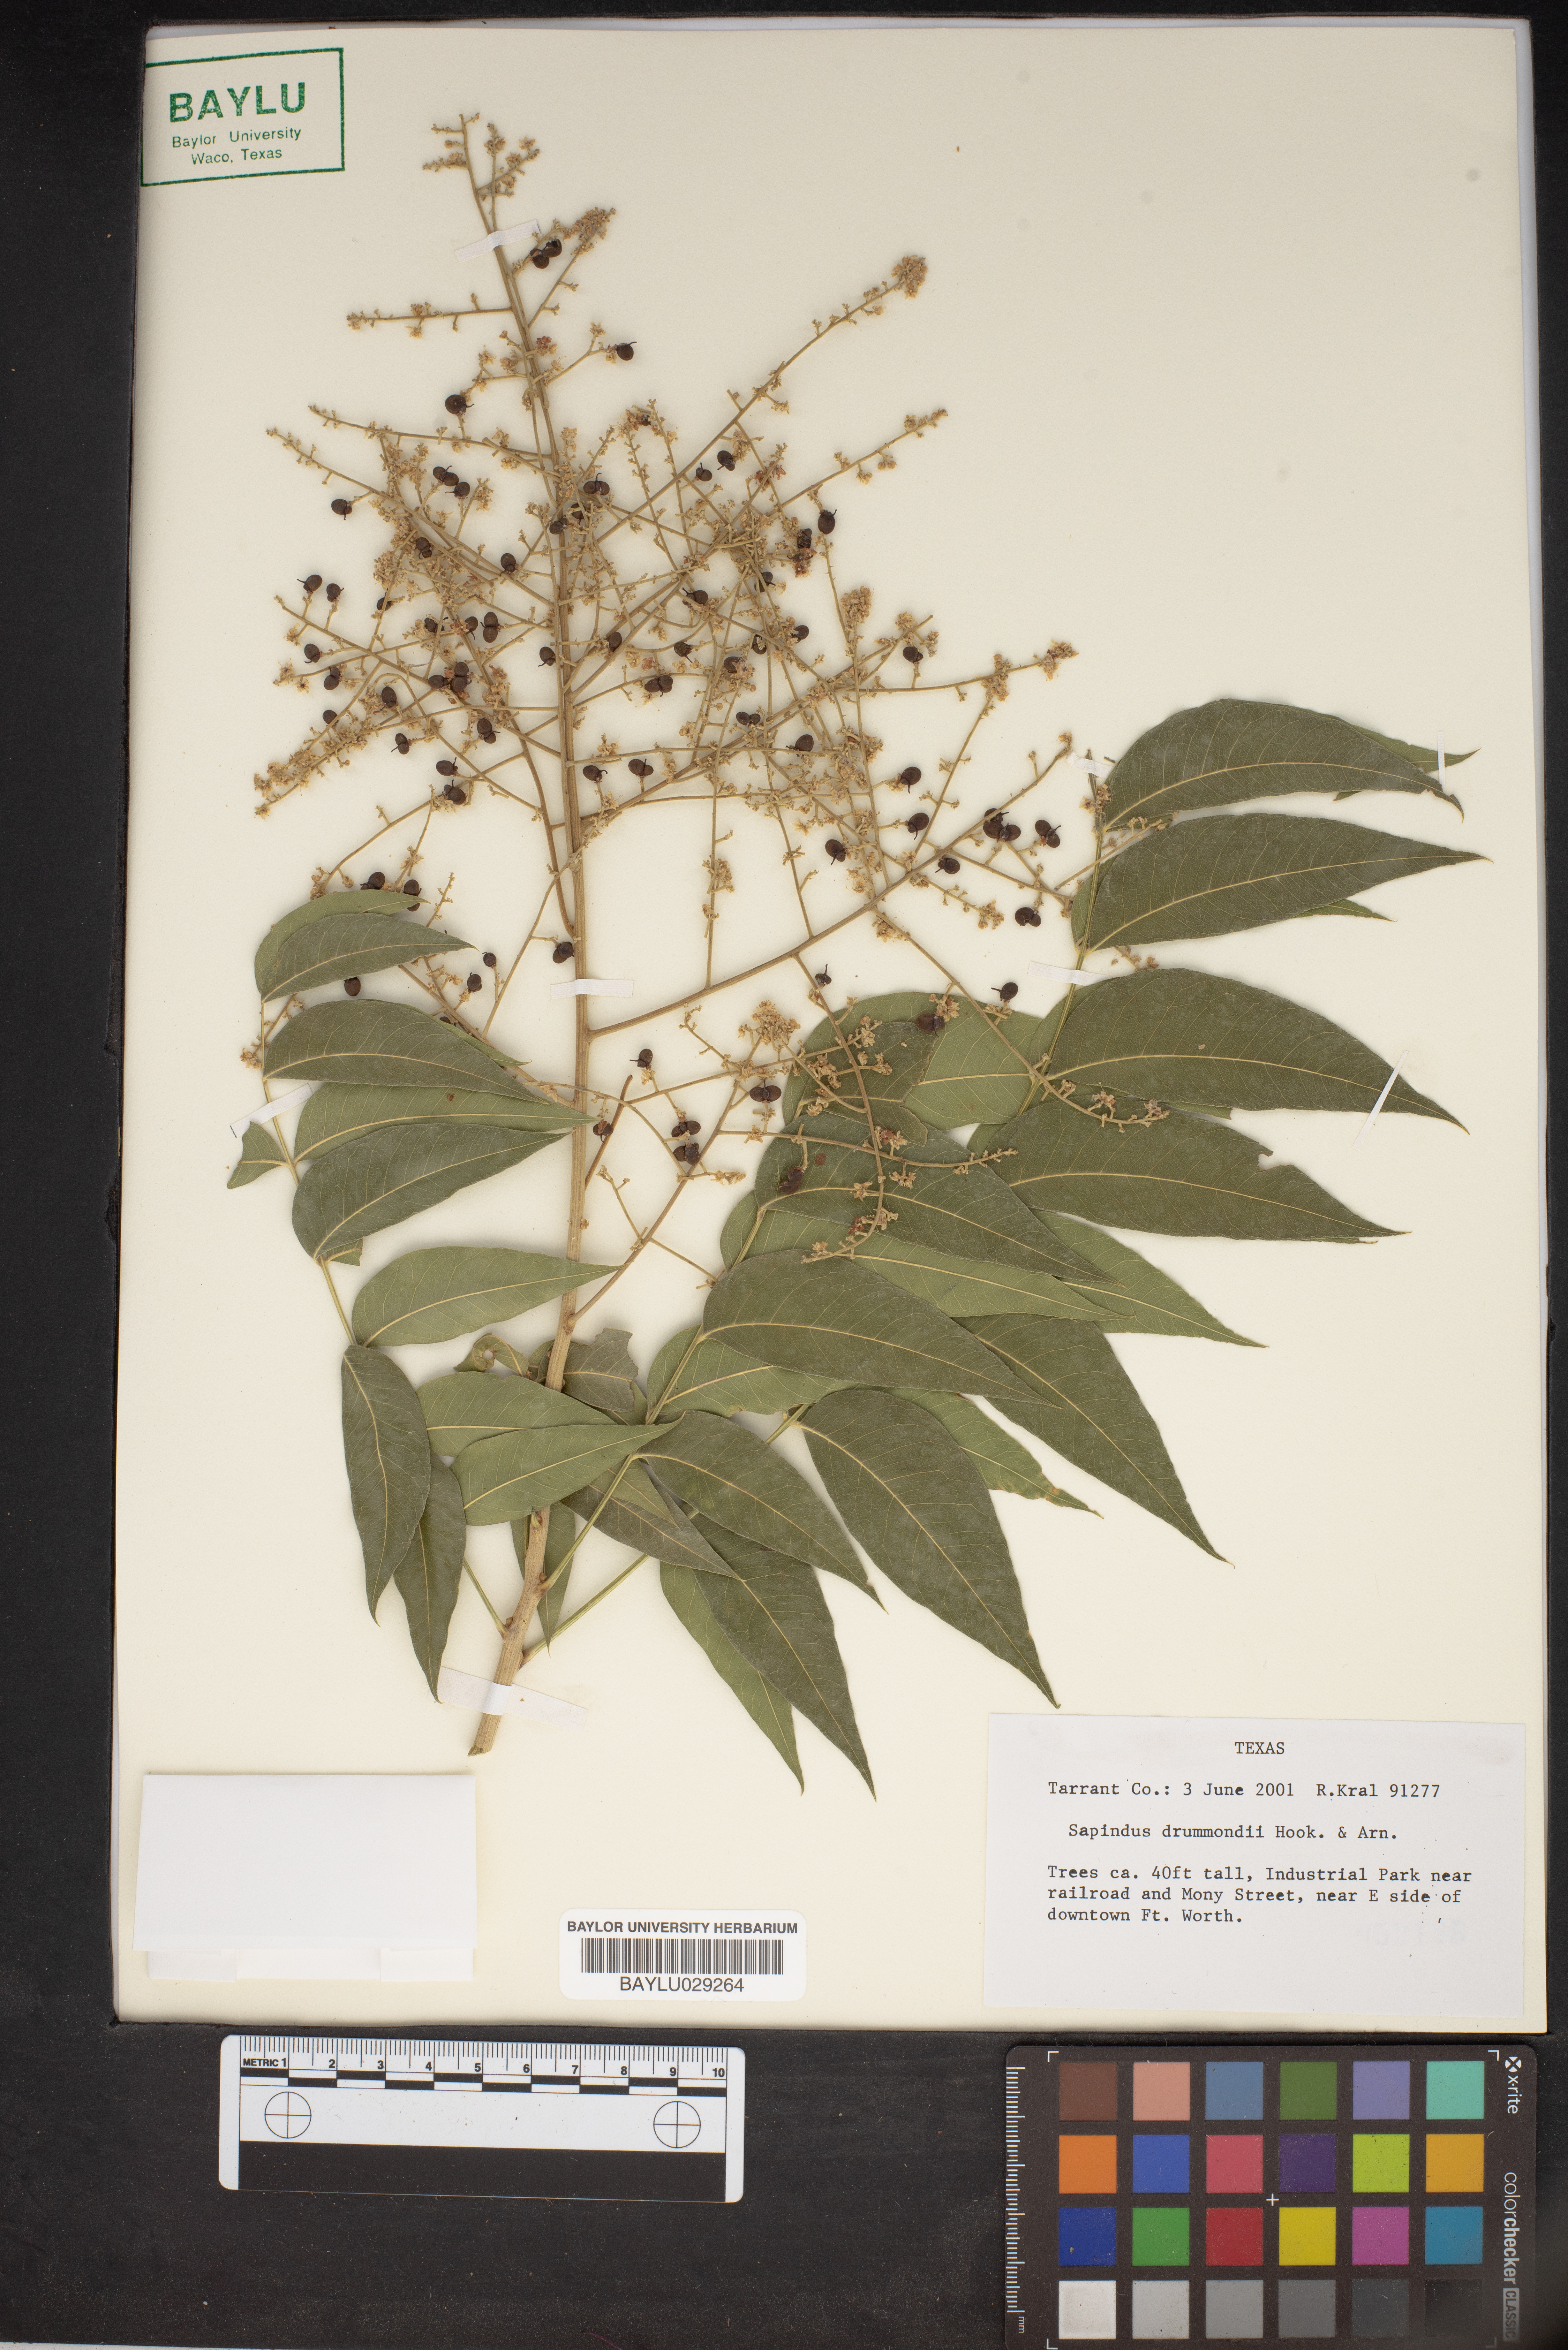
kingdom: Plantae
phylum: Tracheophyta
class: Magnoliopsida
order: Sapindales
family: Sapindaceae
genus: Sapindus
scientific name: Sapindus drummondii
